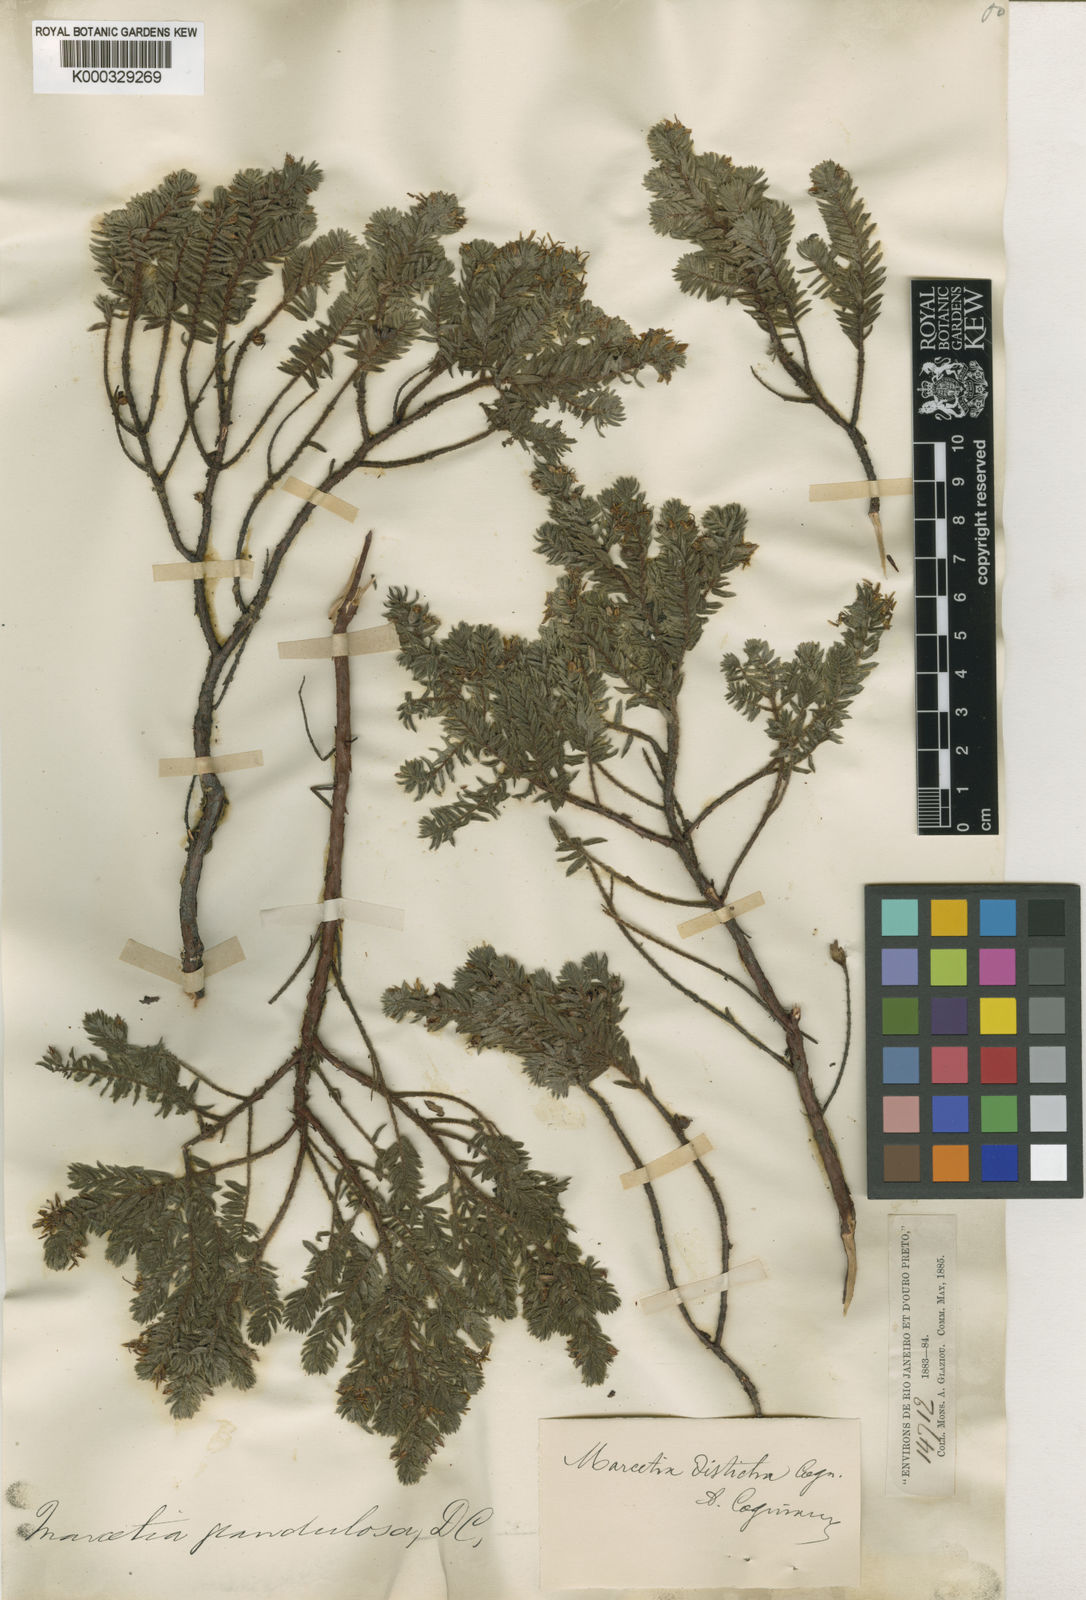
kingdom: Plantae
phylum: Tracheophyta
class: Magnoliopsida
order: Myrtales
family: Melastomataceae
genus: Marcetia
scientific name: Marcetia taxifolia
